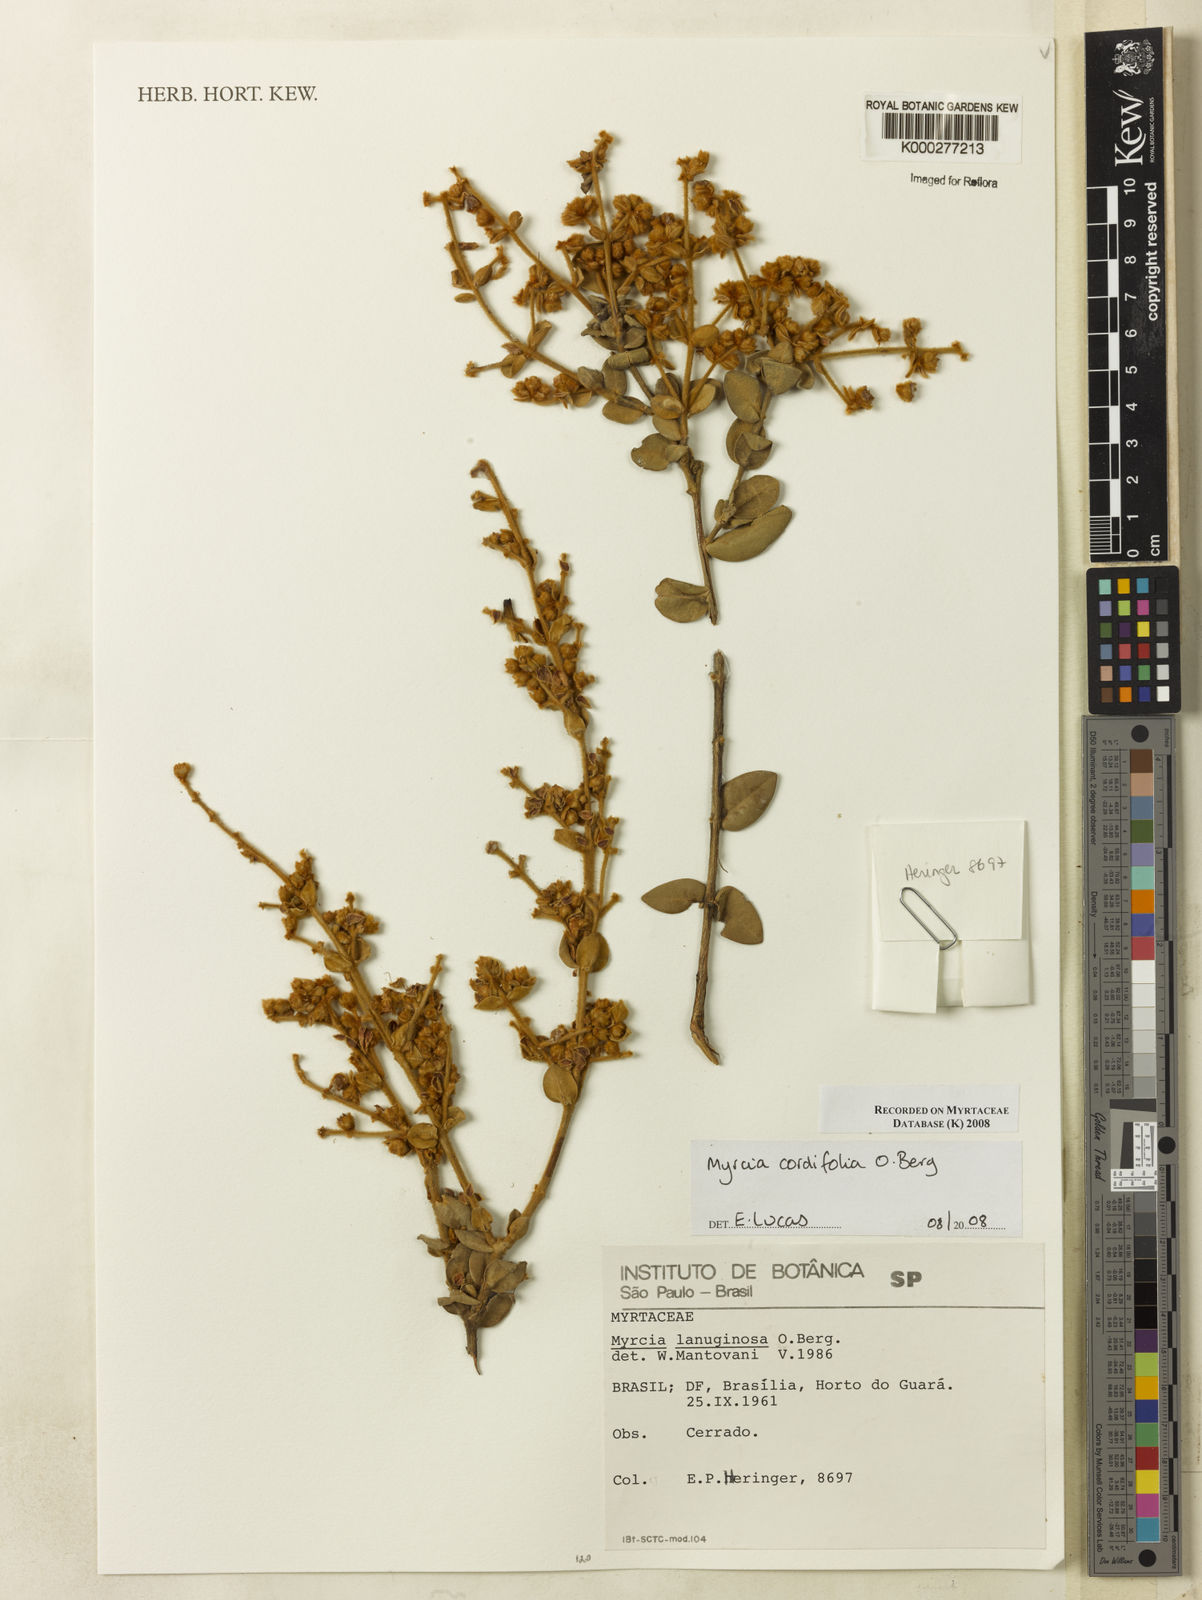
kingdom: Plantae
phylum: Tracheophyta
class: Magnoliopsida
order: Myrtales
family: Myrtaceae
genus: Myrcia
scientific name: Myrcia lasiantha
